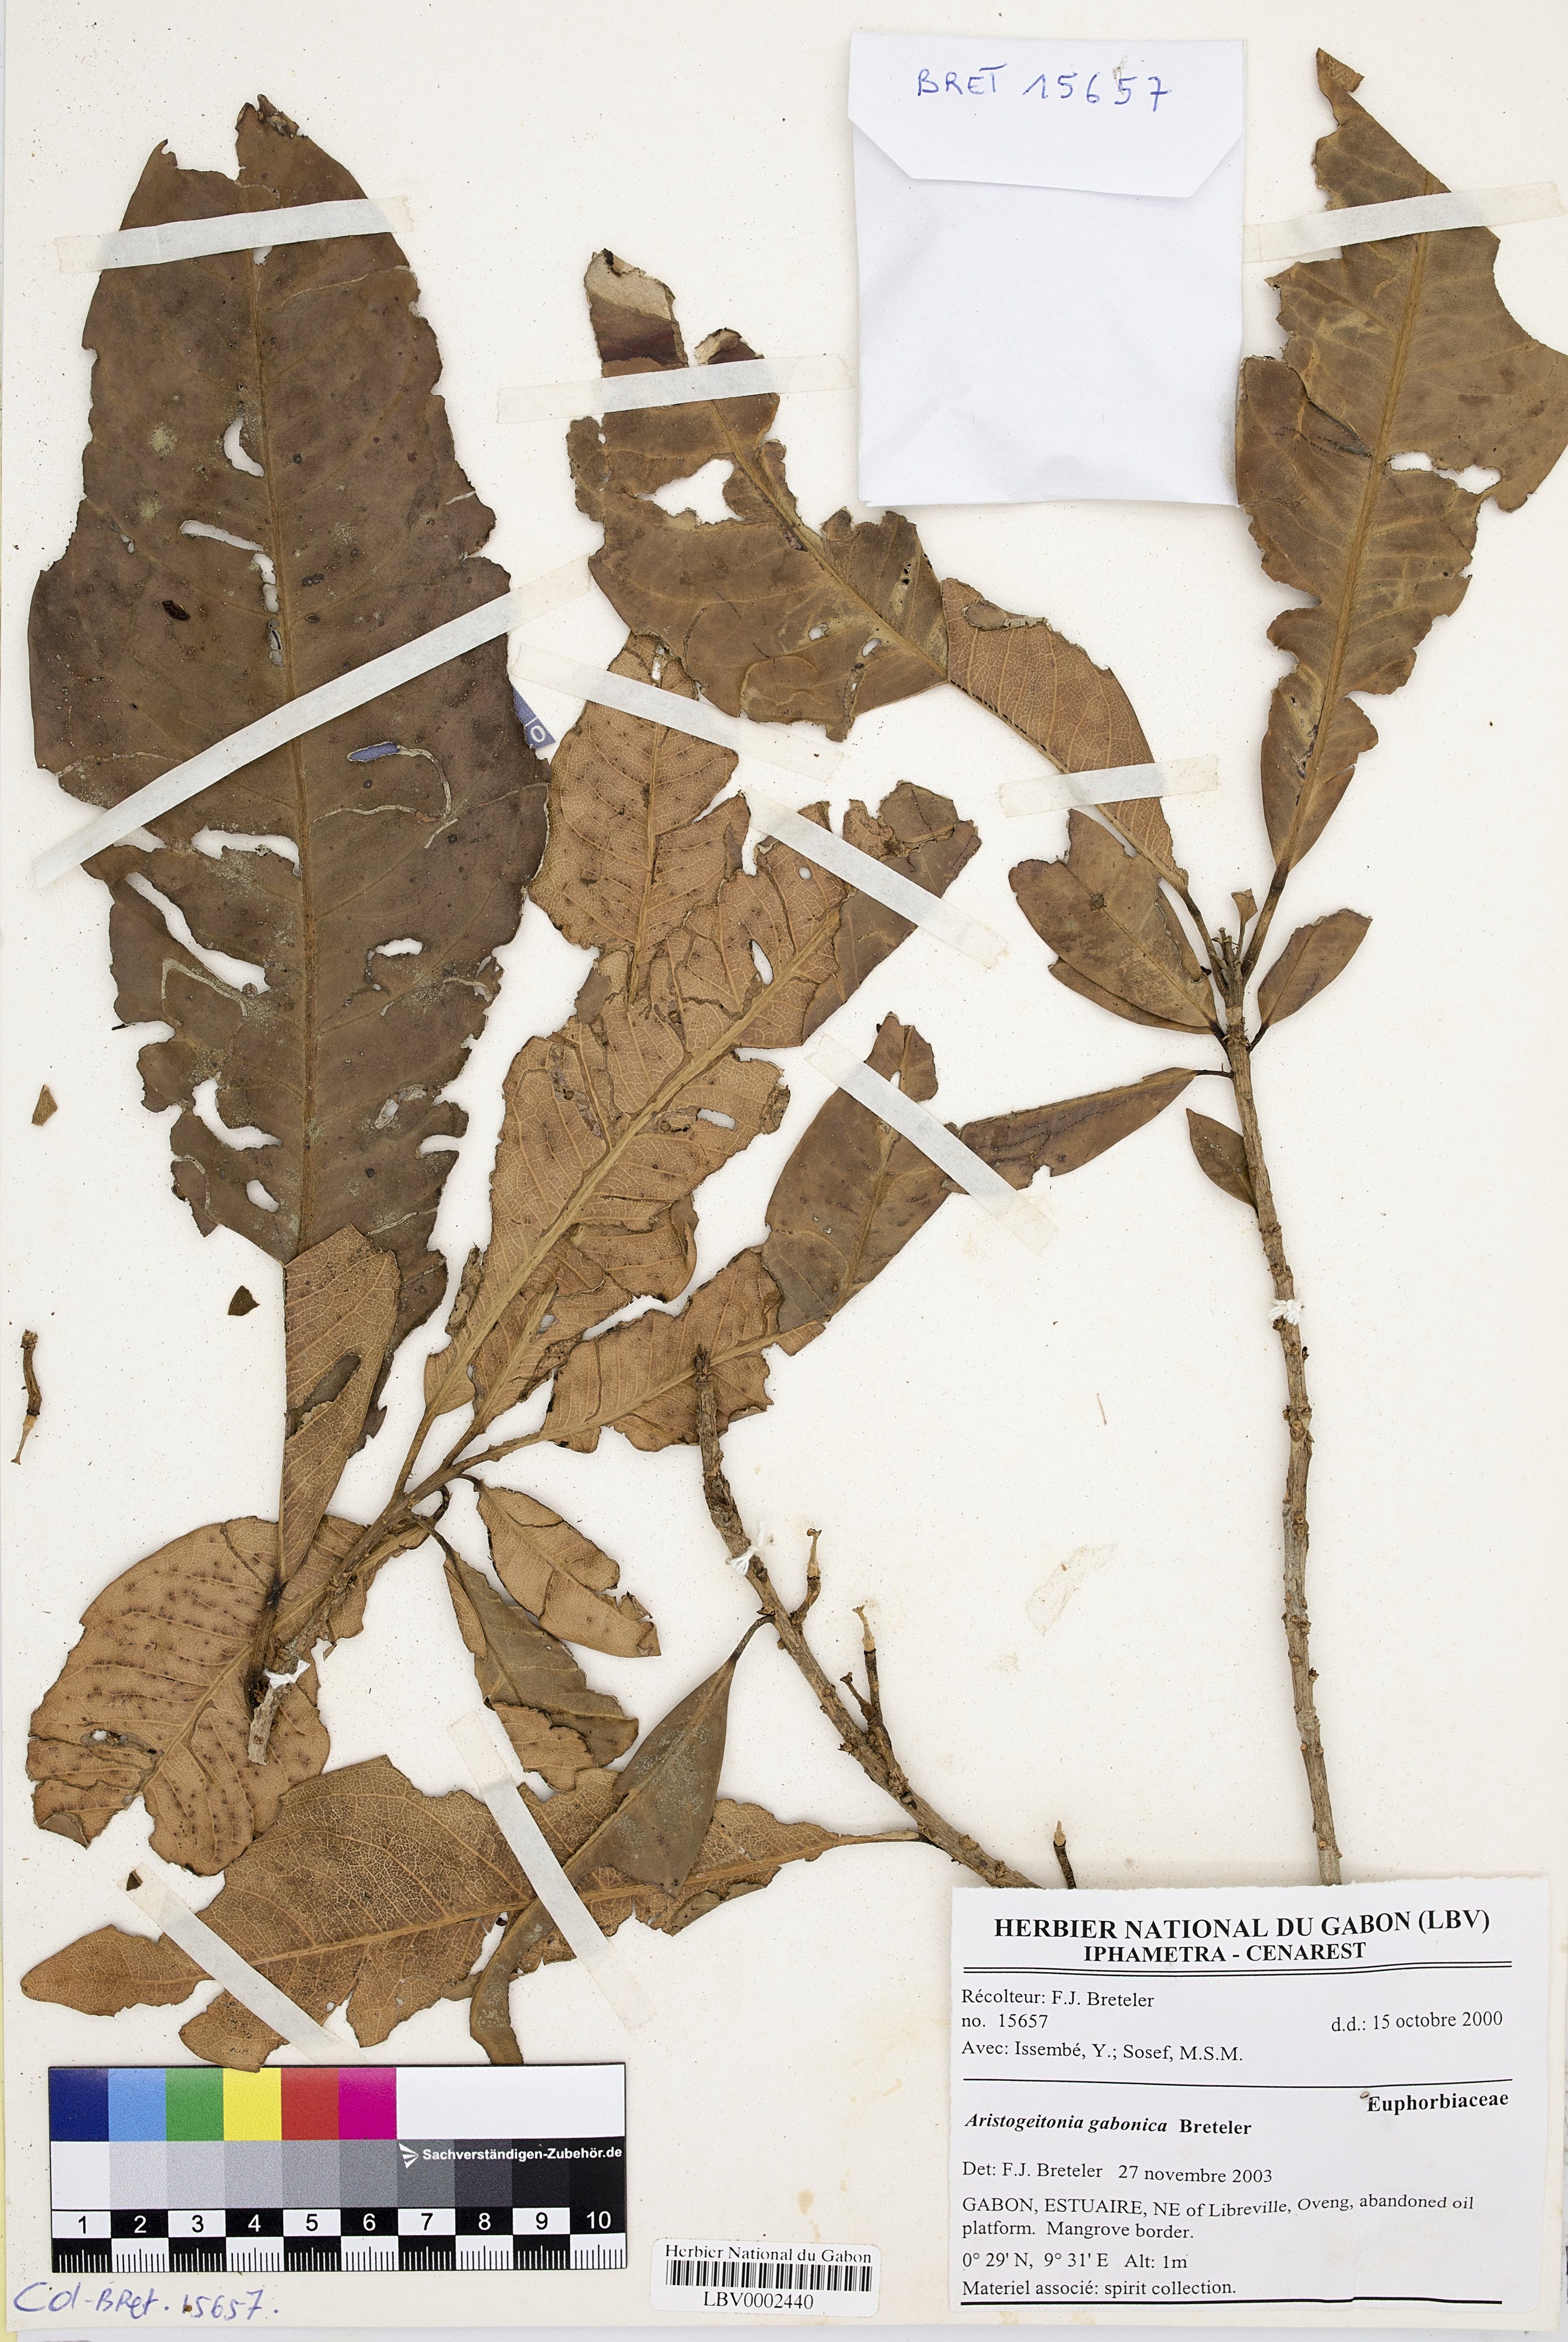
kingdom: Plantae
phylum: Tracheophyta
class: Magnoliopsida
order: Malpighiales
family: Picrodendraceae
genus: Aristogeitonia
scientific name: Aristogeitonia gabonica
